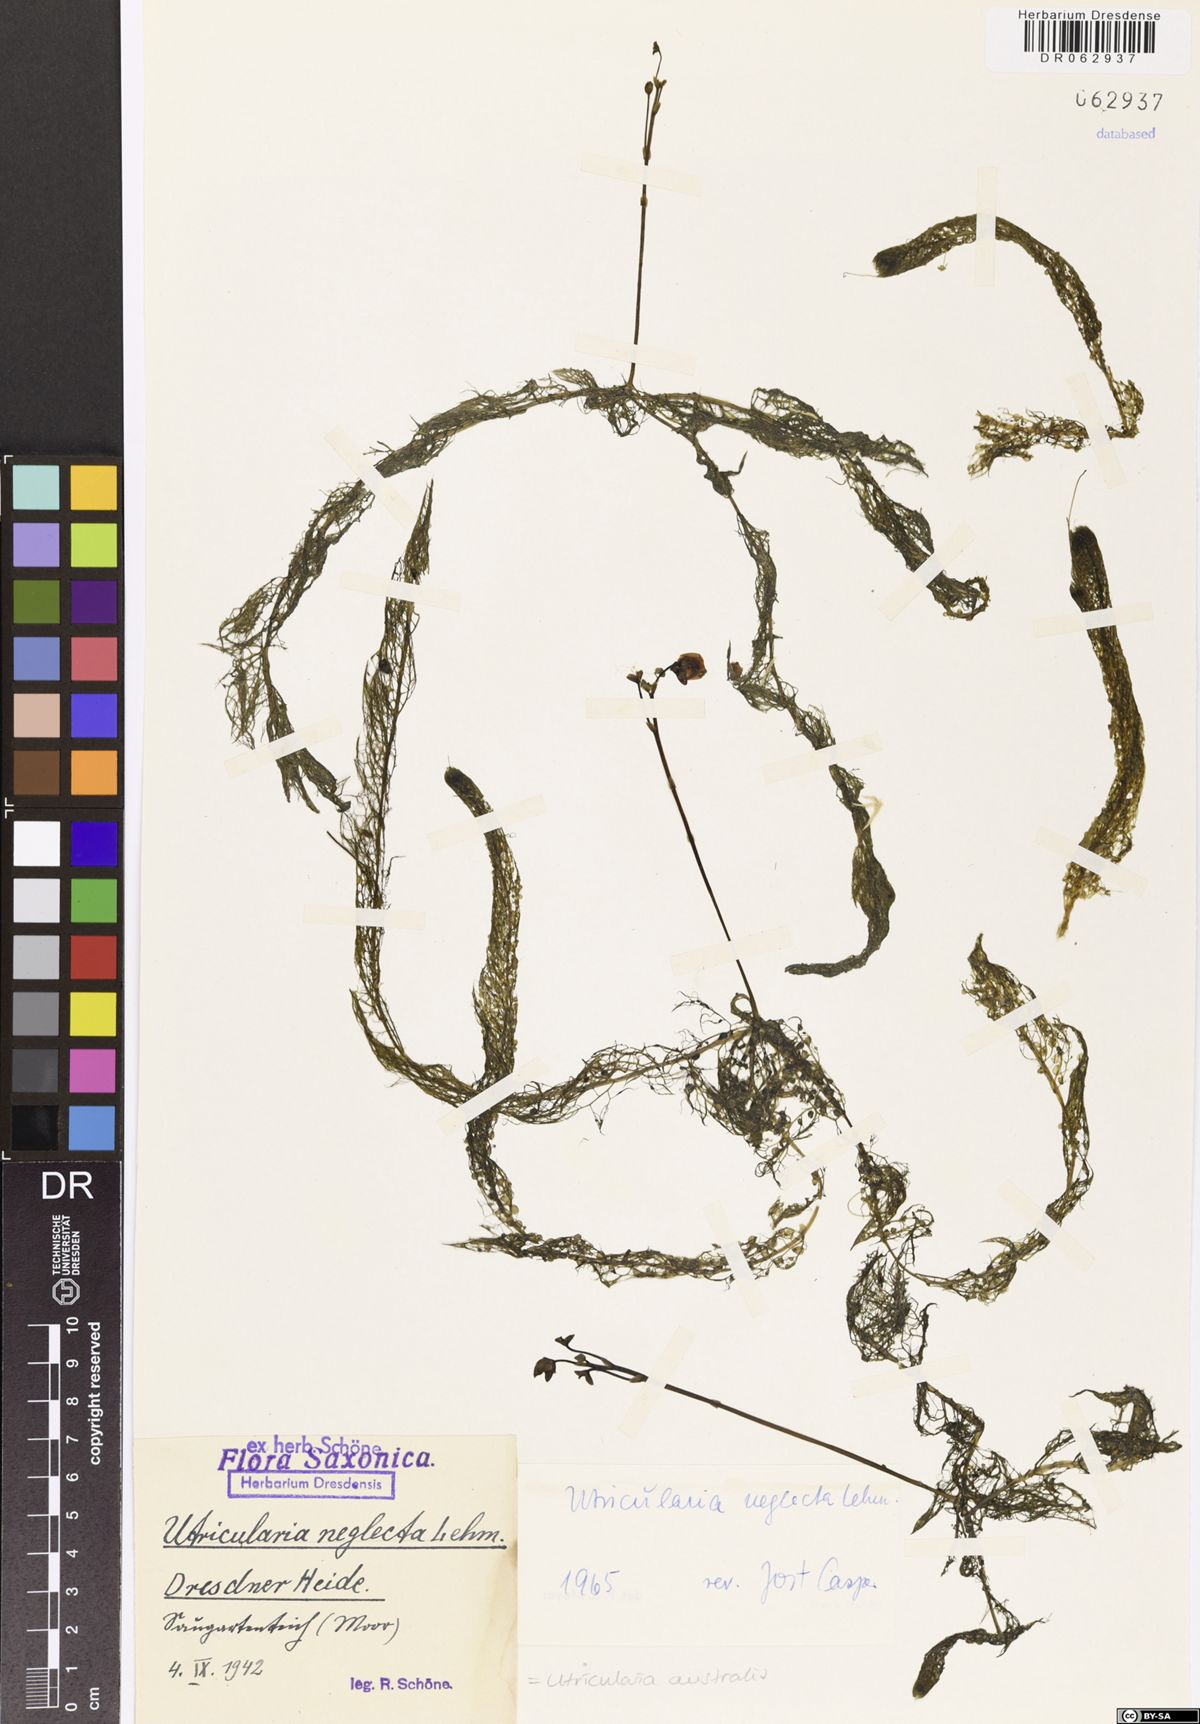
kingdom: Plantae
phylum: Tracheophyta
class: Magnoliopsida
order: Lamiales
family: Lentibulariaceae
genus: Utricularia
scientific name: Utricularia australis
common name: Bladderwort
